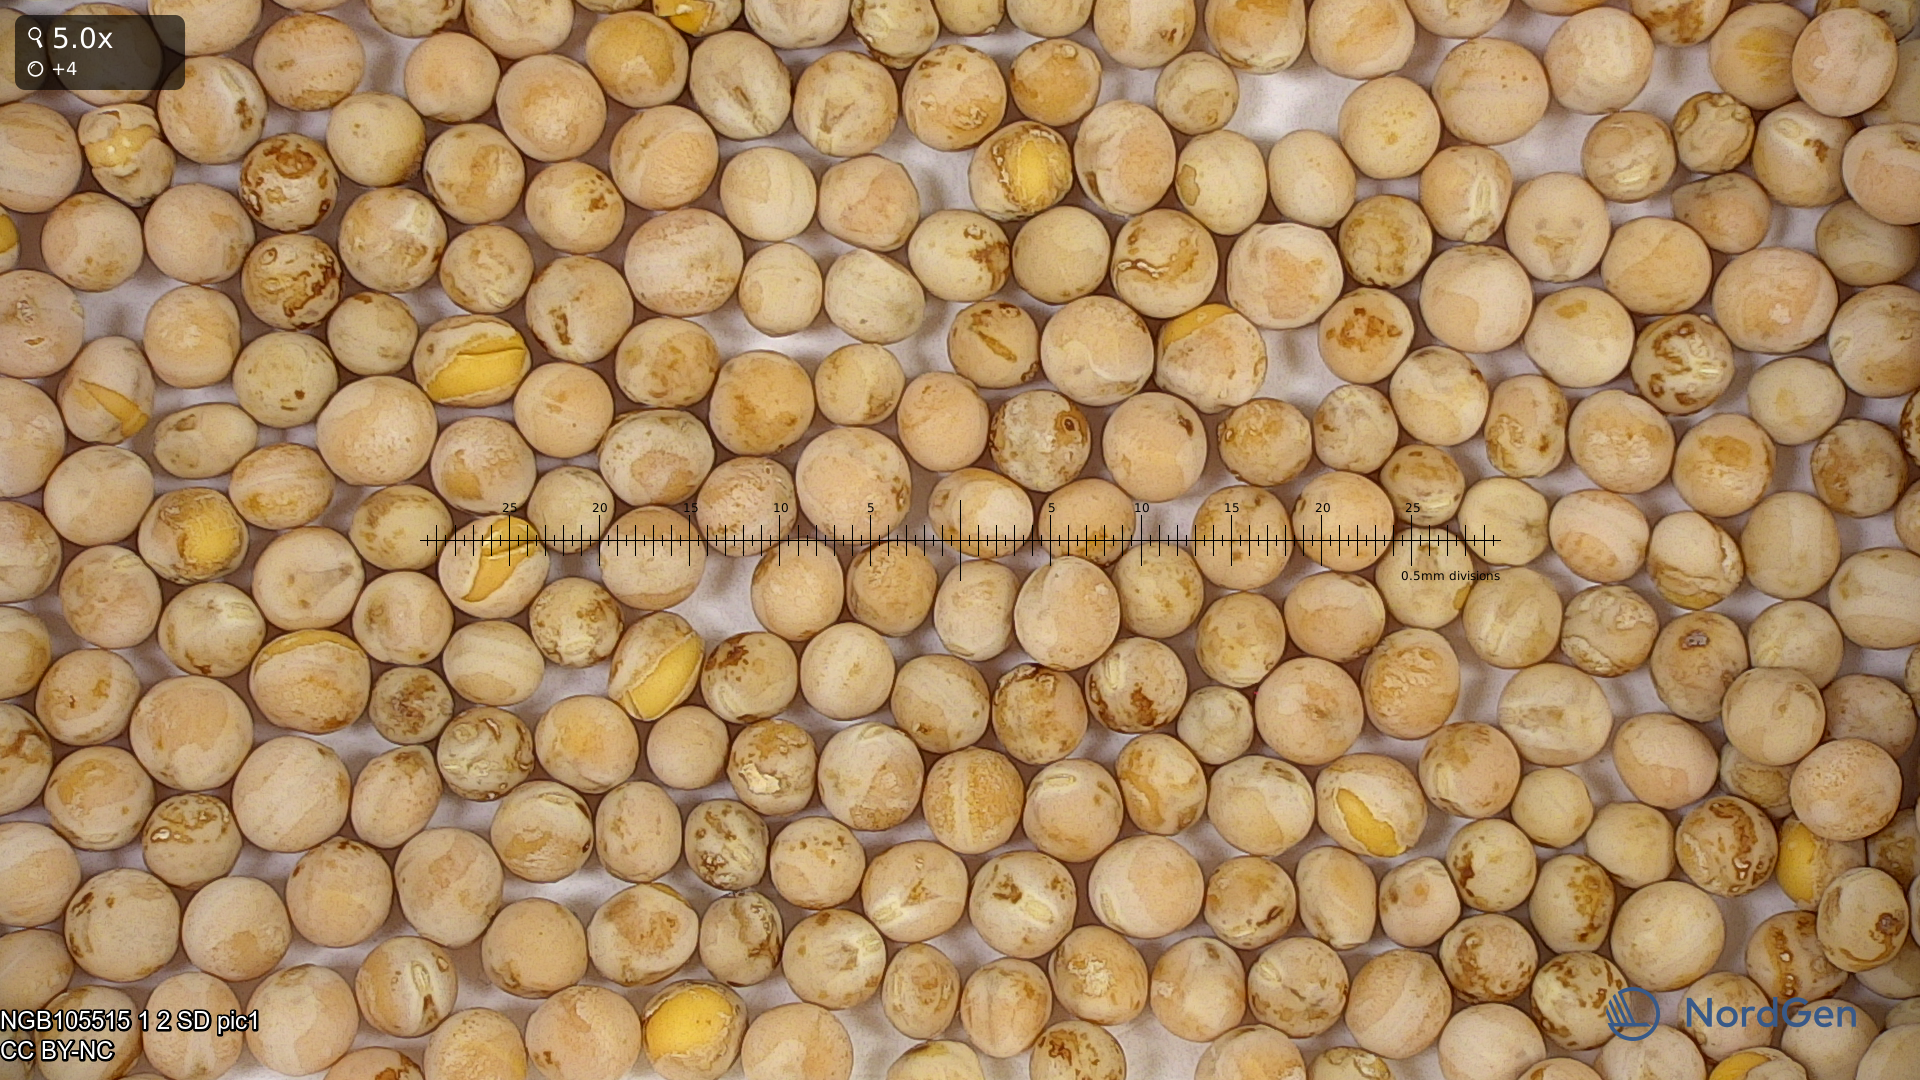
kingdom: Plantae
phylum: Tracheophyta
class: Magnoliopsida
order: Fabales
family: Fabaceae
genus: Lathyrus
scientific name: Lathyrus oleraceus
